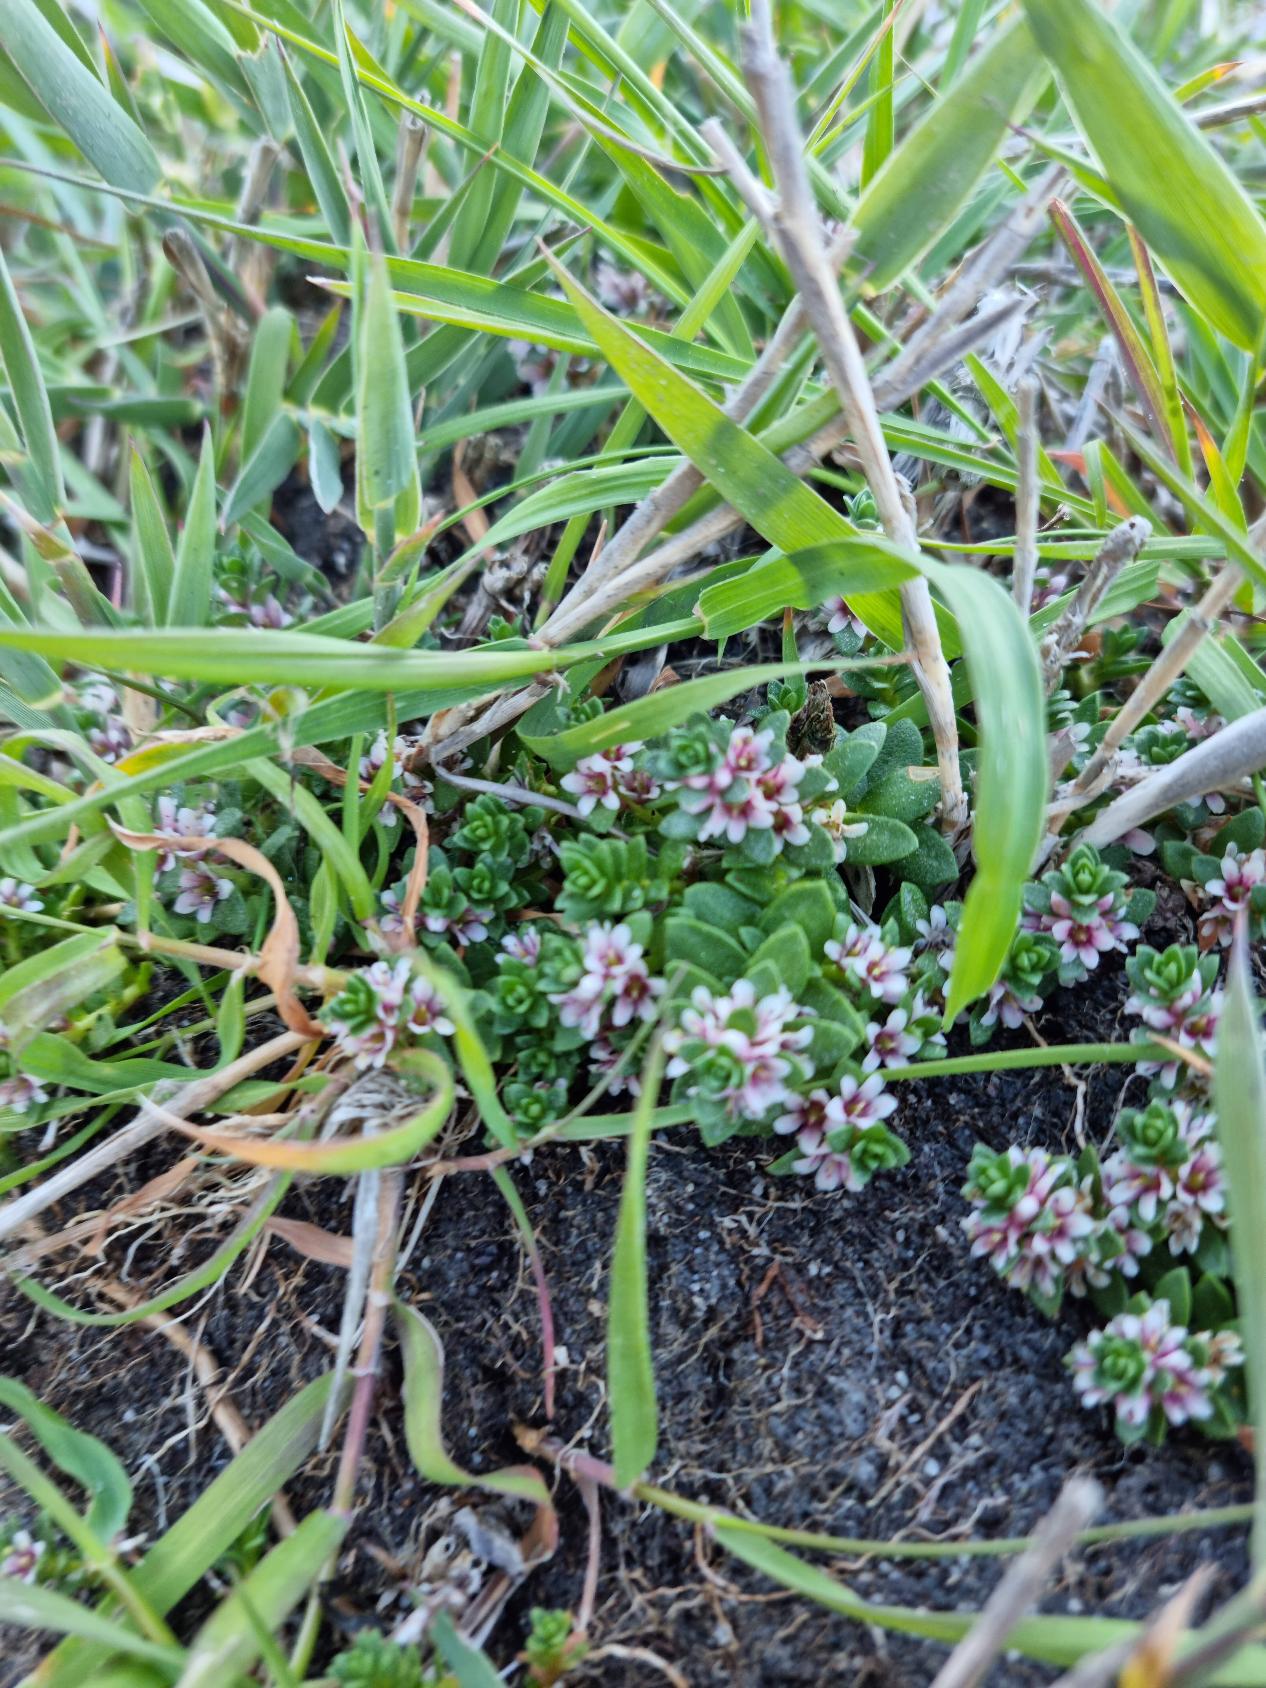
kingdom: Plantae
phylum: Tracheophyta
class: Magnoliopsida
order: Ericales
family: Primulaceae
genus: Lysimachia
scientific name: Lysimachia maritima
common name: Sandkryb
